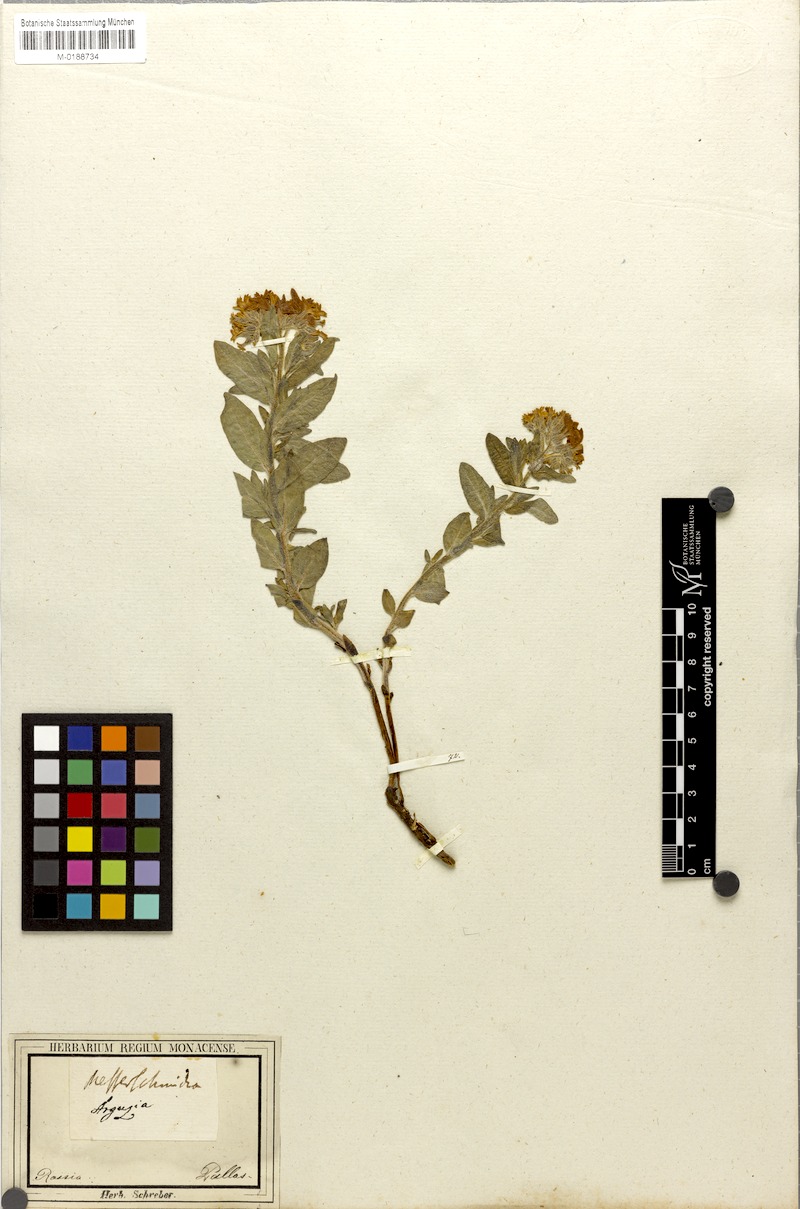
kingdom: Plantae
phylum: Tracheophyta
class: Magnoliopsida
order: Boraginales
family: Heliotropiaceae
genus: Tournefortia
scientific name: Tournefortia sibirica
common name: Siberian sea rosemary
